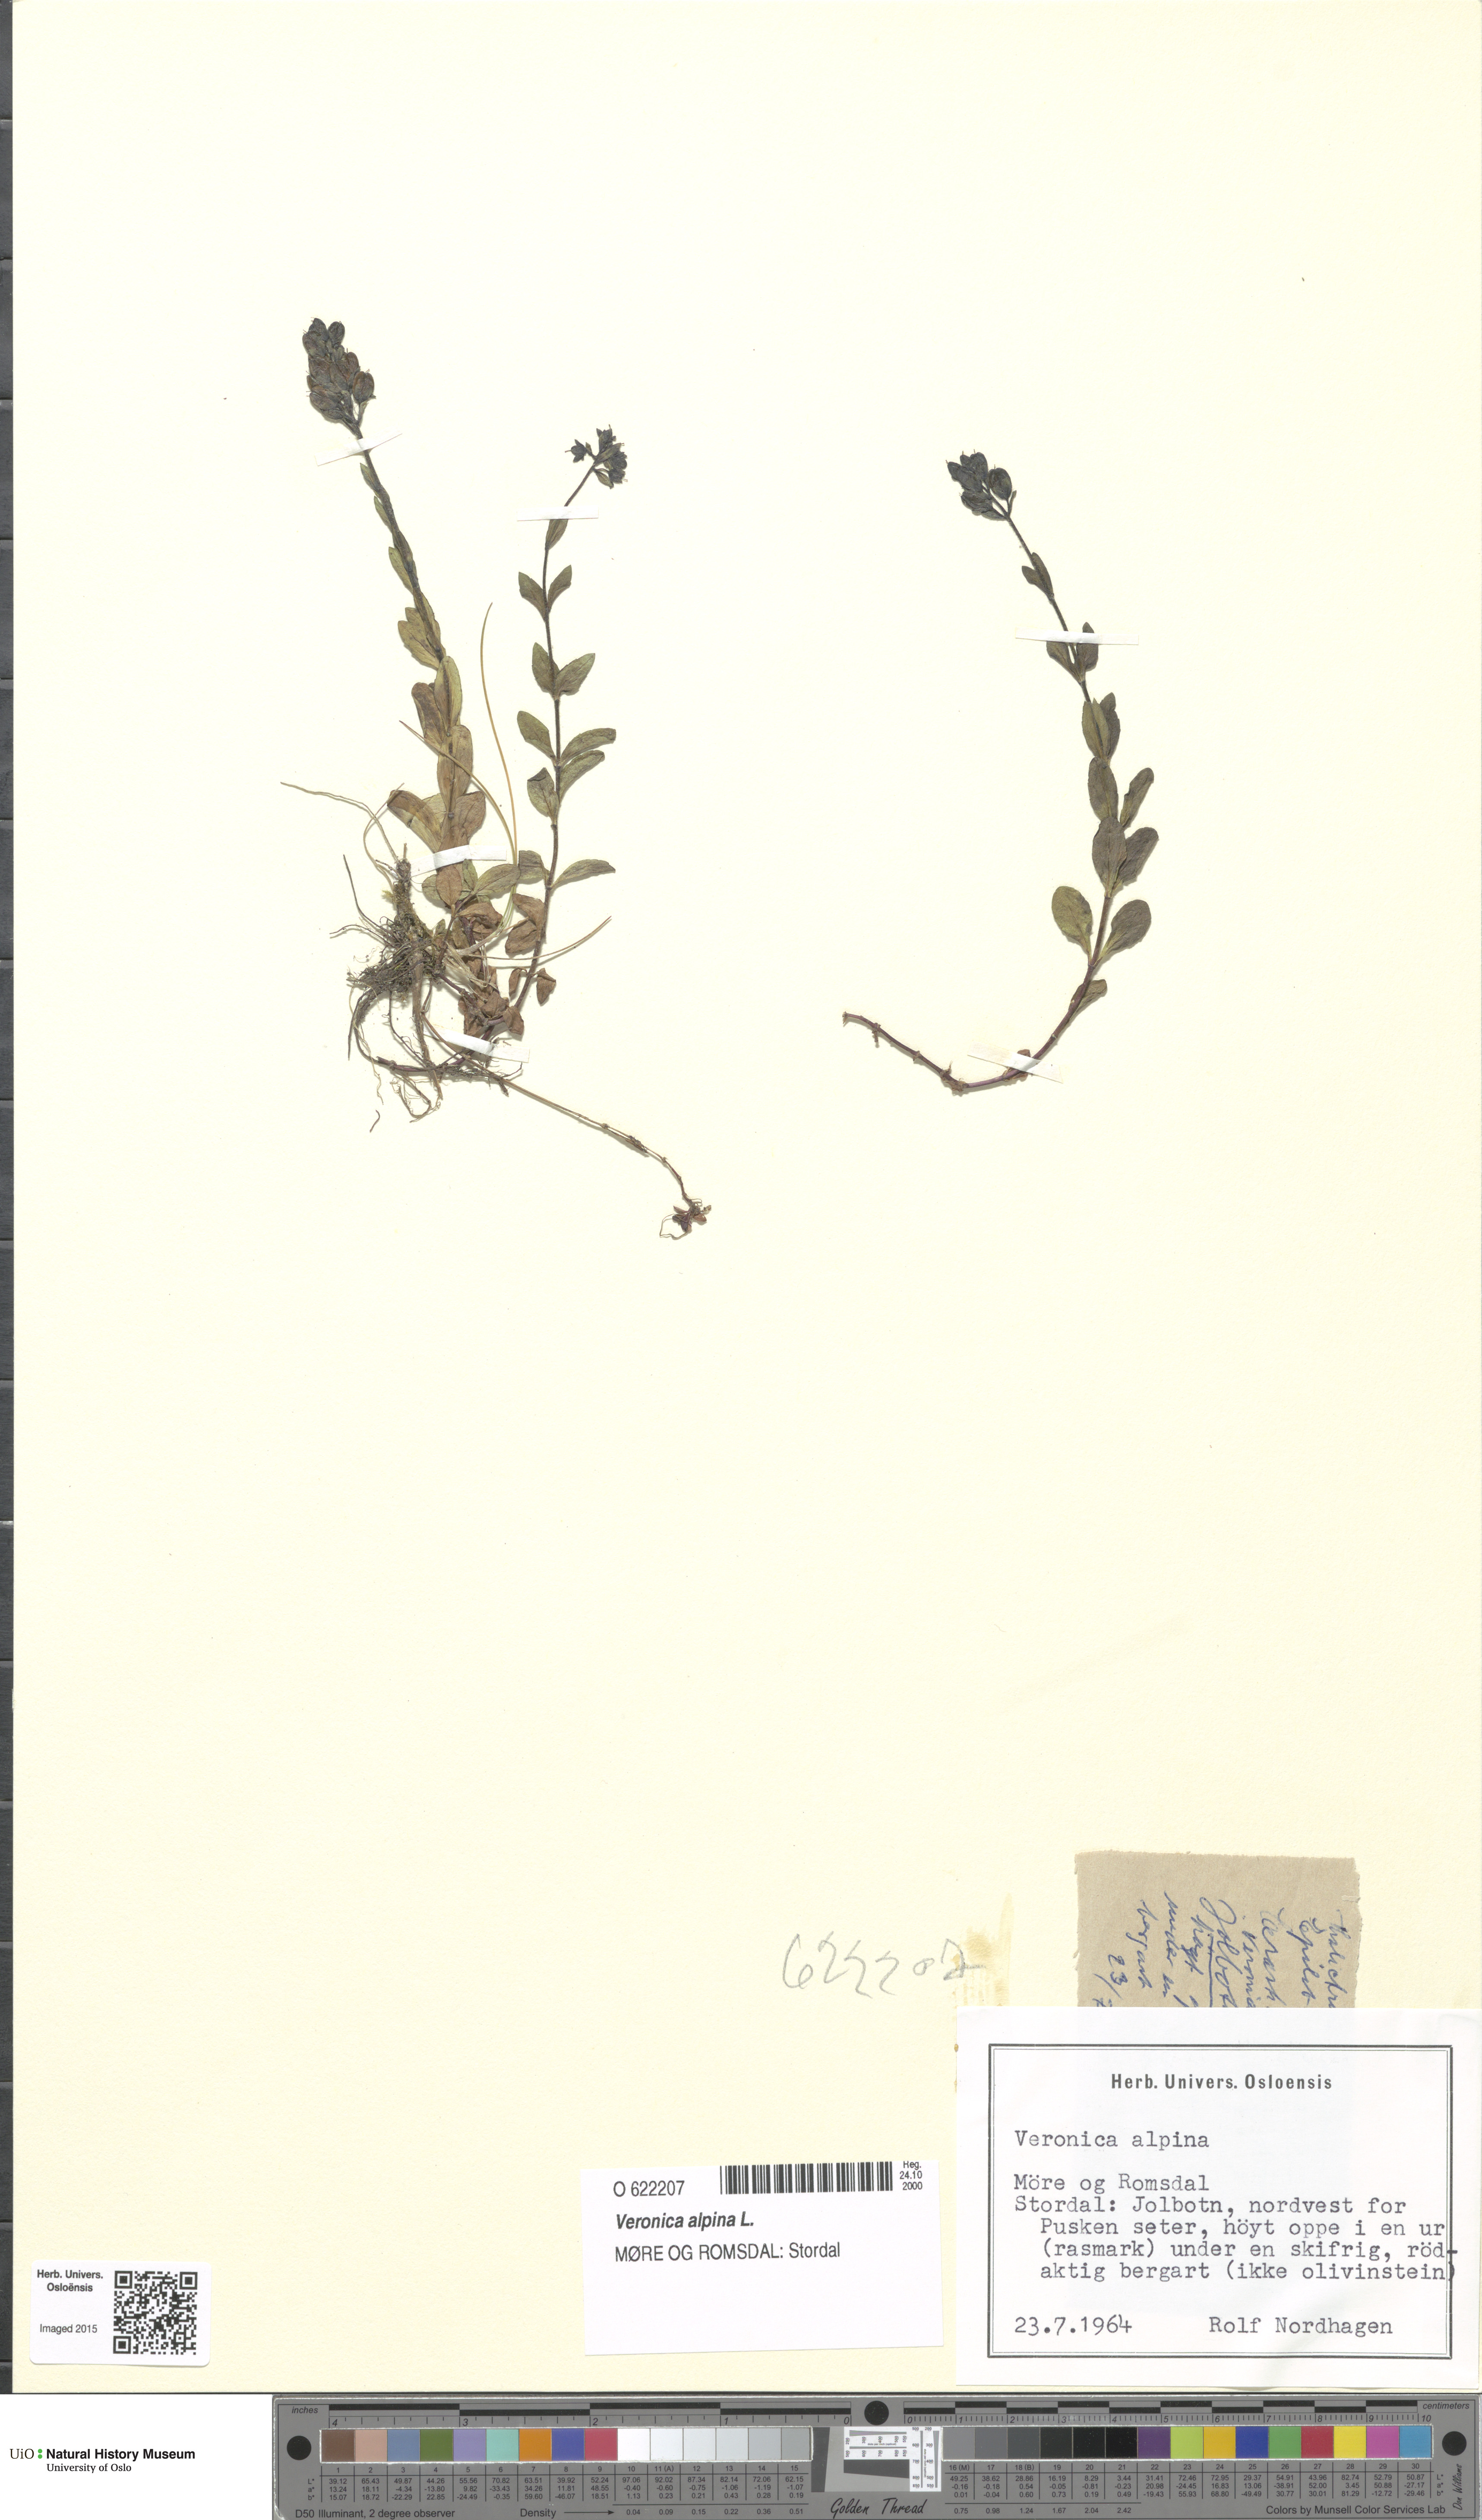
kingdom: Plantae
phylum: Tracheophyta
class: Magnoliopsida
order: Lamiales
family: Plantaginaceae
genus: Veronica
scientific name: Veronica alpina
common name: Alpine speedwell
